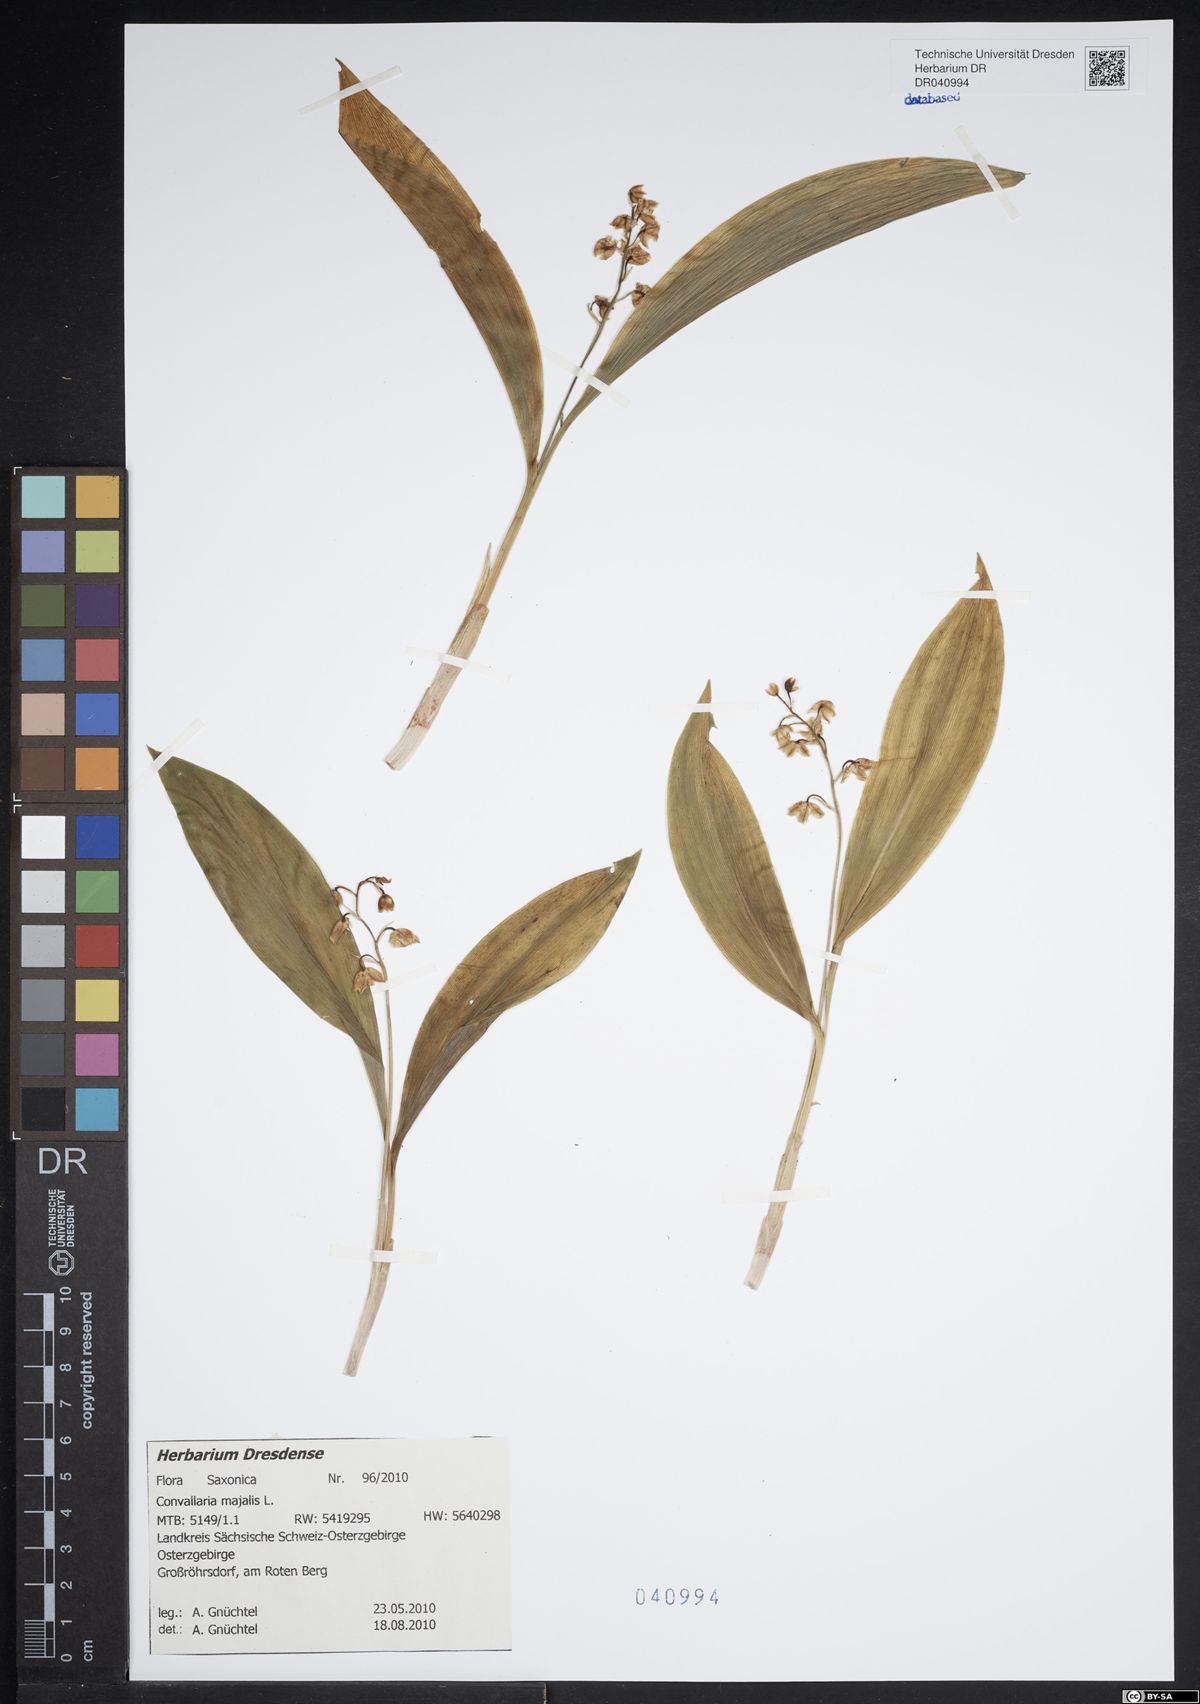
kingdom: Plantae
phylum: Tracheophyta
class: Liliopsida
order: Asparagales
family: Asparagaceae
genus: Convallaria
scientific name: Convallaria majalis
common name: Lily-of-the-valley
